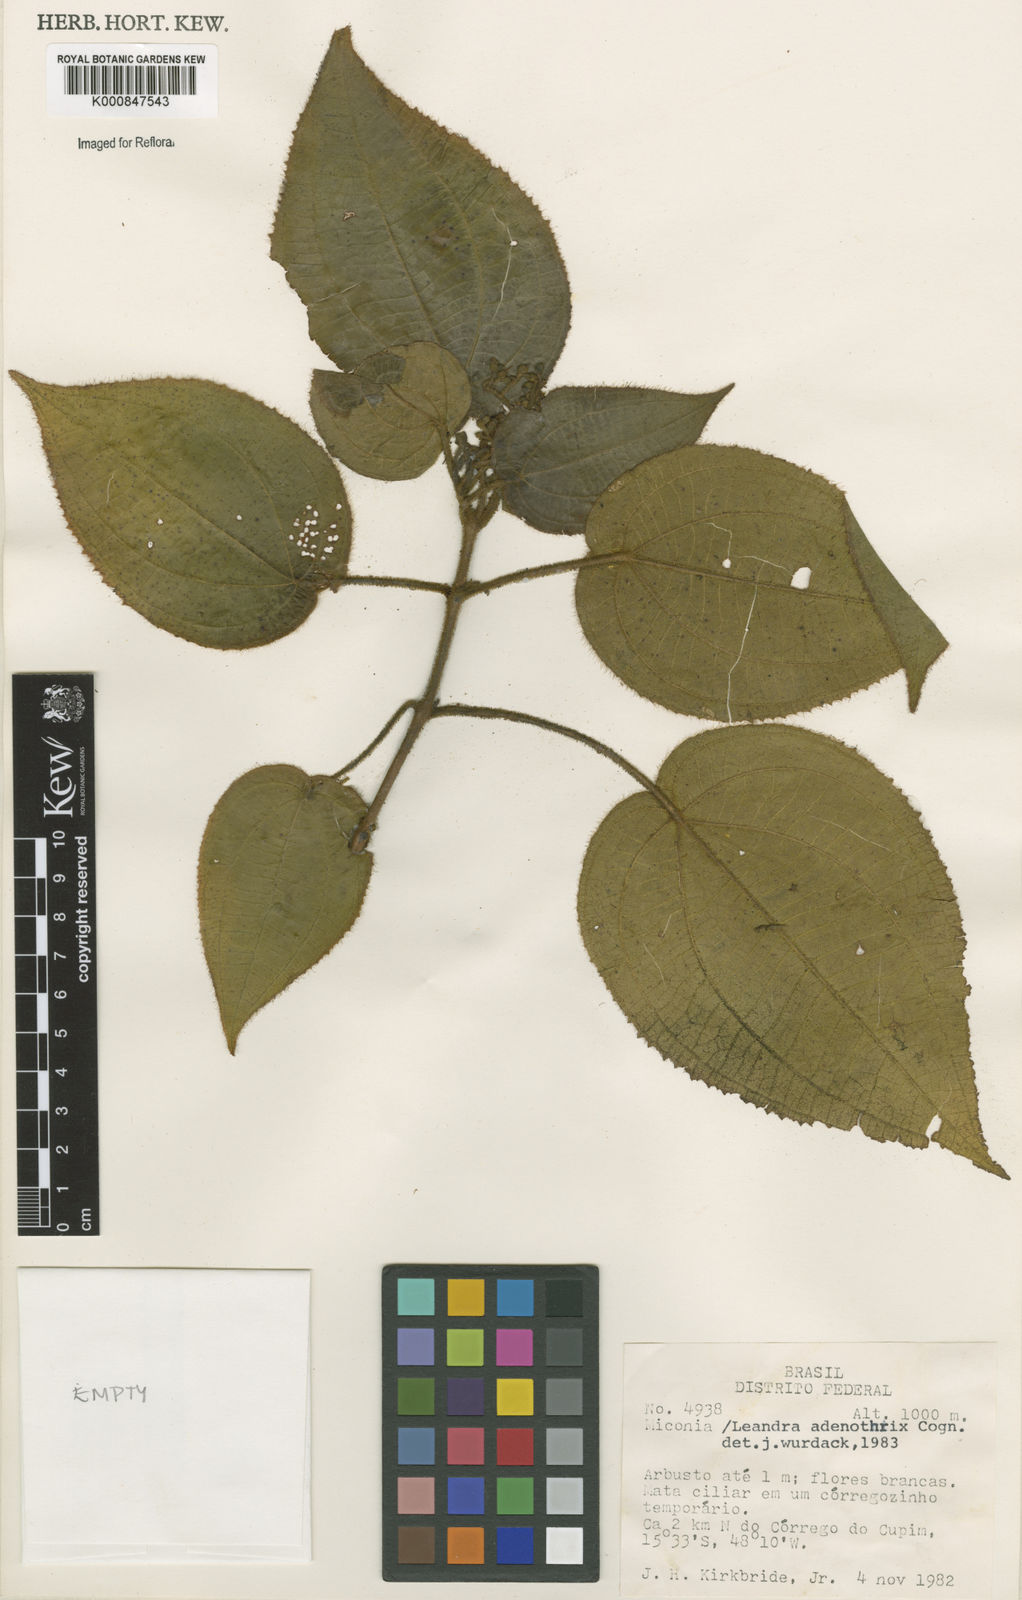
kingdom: Plantae
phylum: Tracheophyta
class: Magnoliopsida
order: Myrtales
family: Melastomataceae
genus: Miconia
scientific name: Miconia adenothrix
